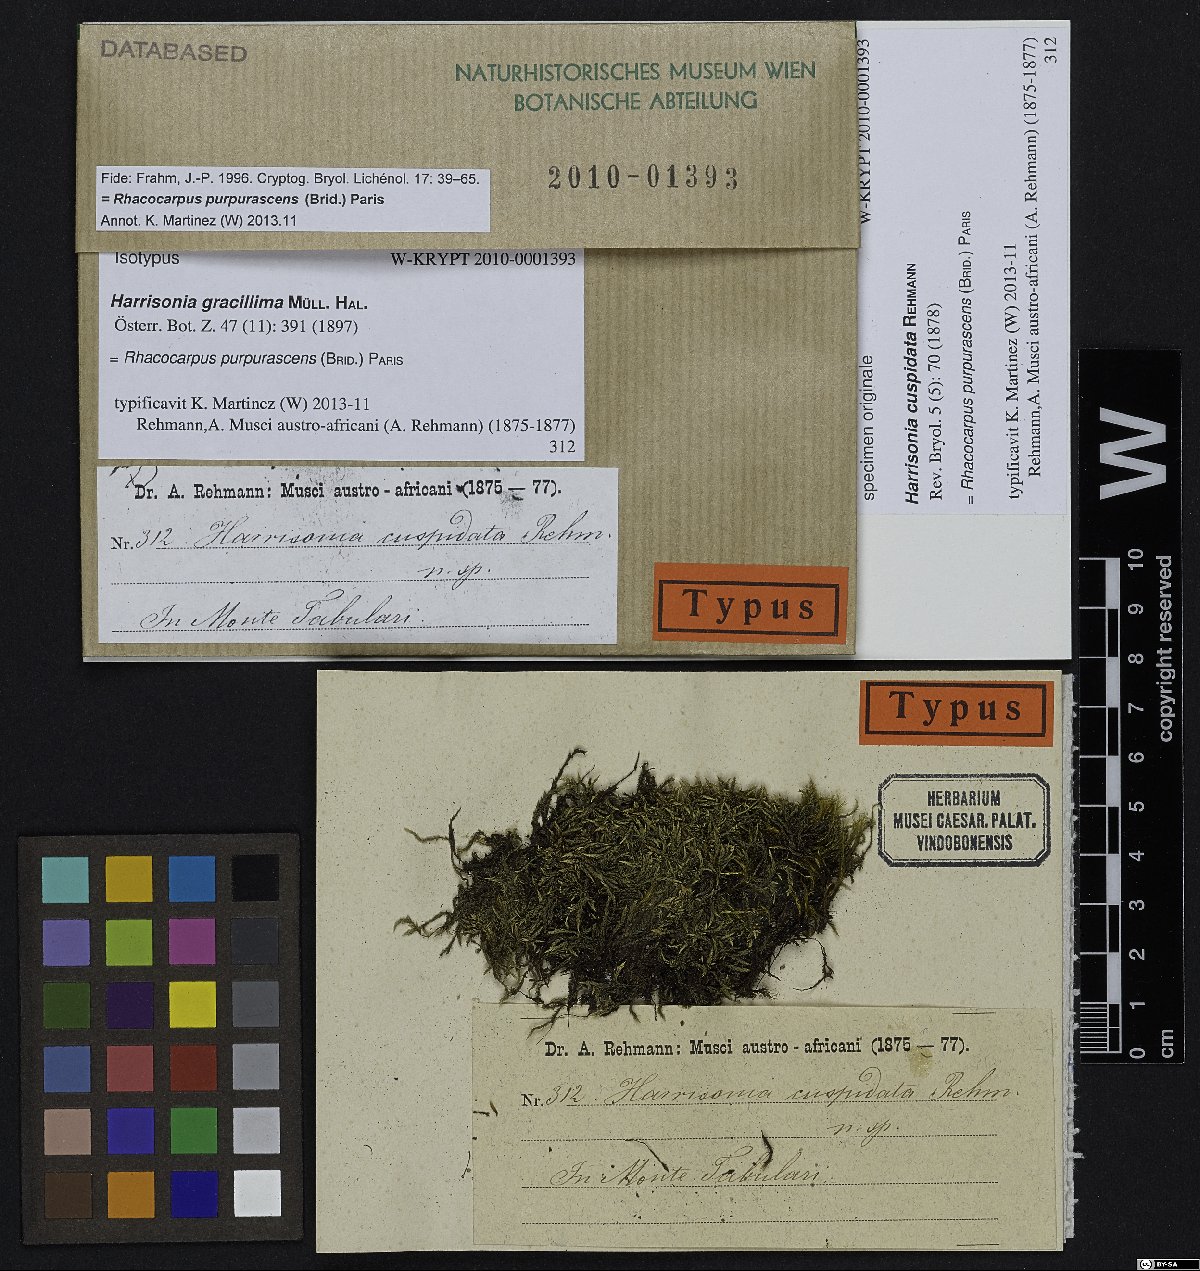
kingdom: Plantae
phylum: Bryophyta
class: Bryopsida
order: Hedwigiales
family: Hedwigiaceae
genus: Rhacocarpus
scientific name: Rhacocarpus purpurascens
